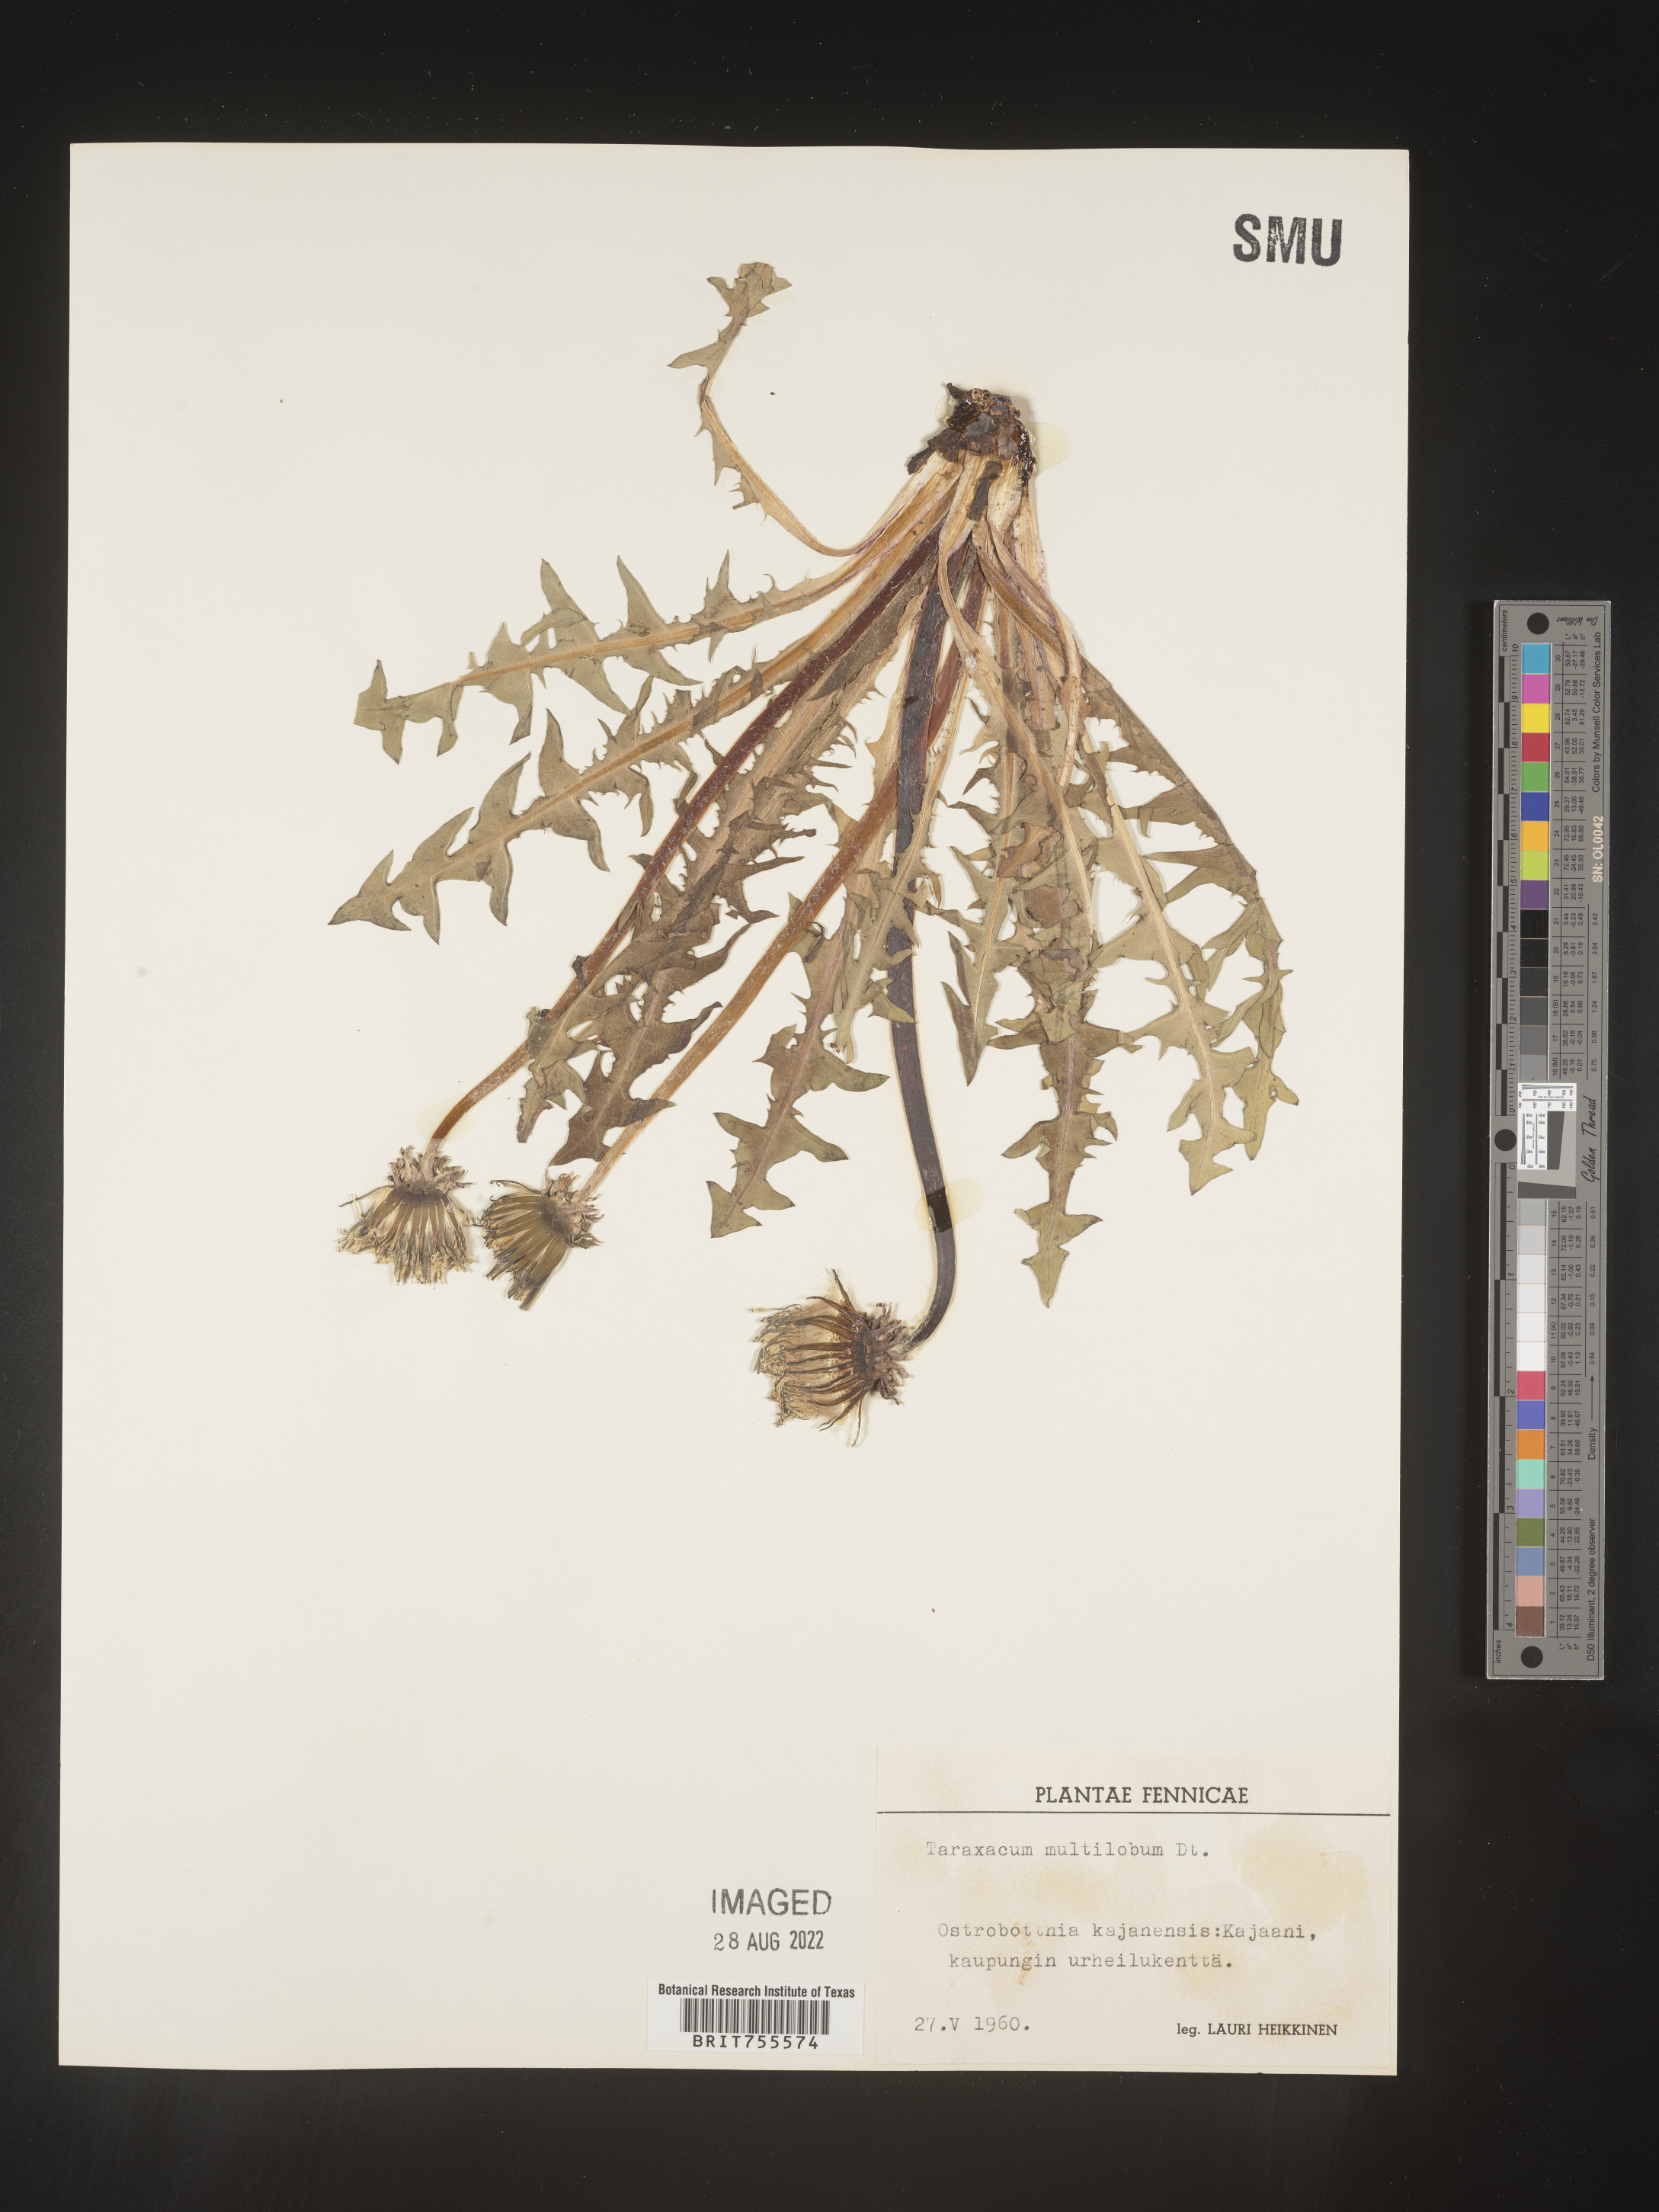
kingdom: Plantae
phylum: Tracheophyta
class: Magnoliopsida
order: Asterales
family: Asteraceae
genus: Taraxacum
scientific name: Taraxacum
